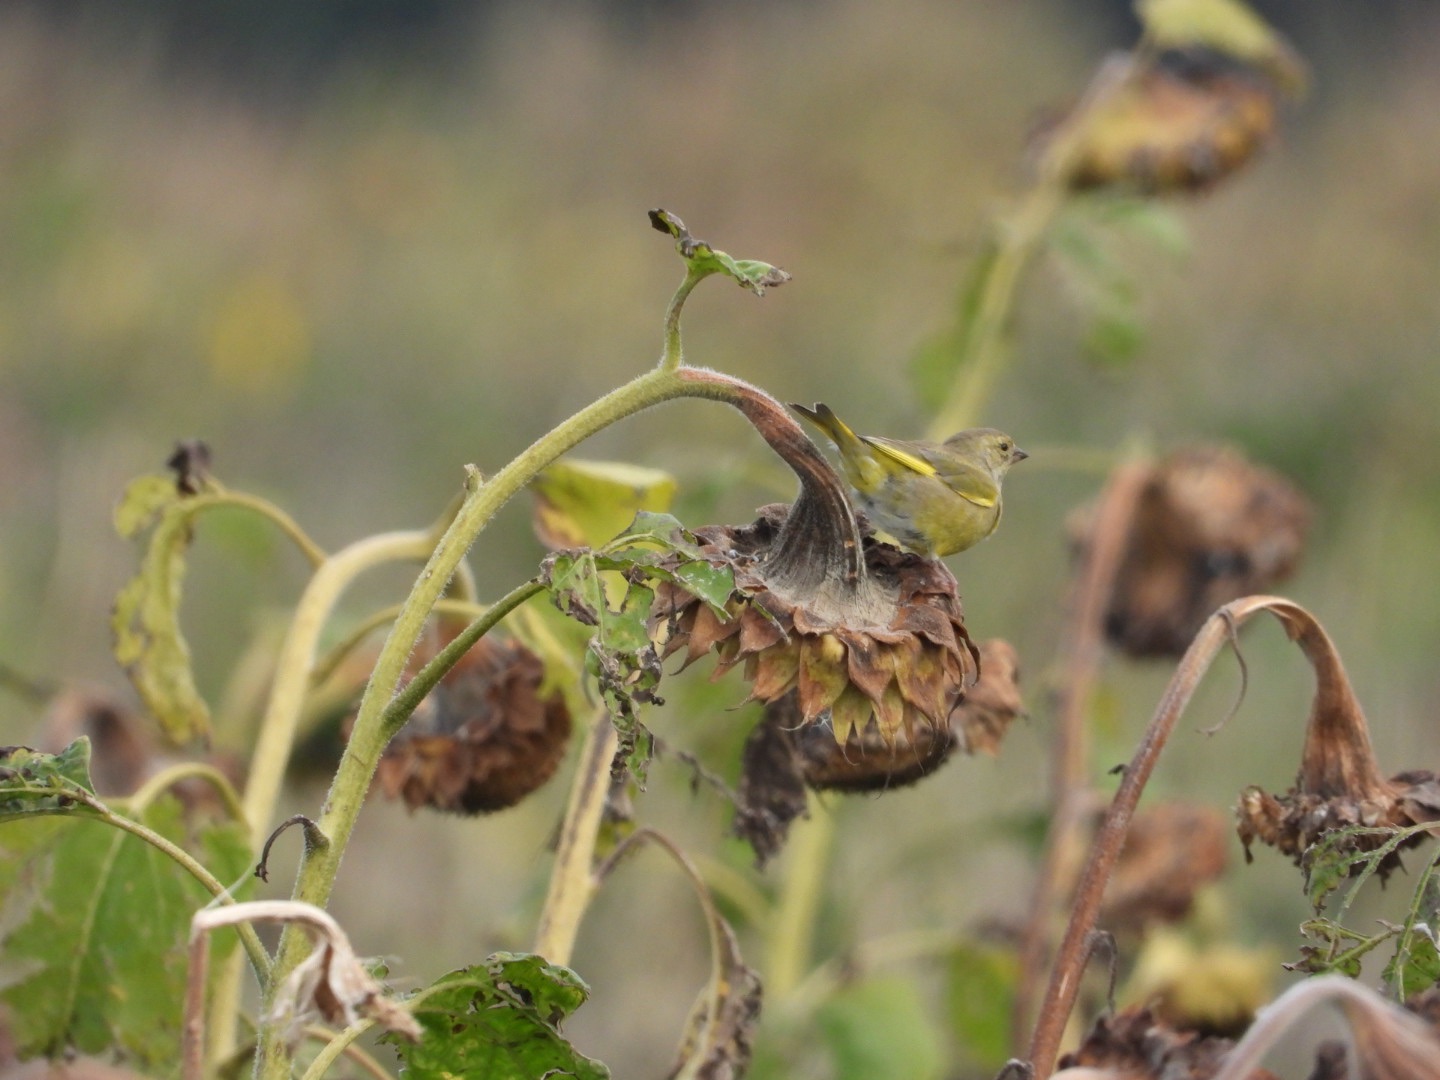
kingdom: Plantae
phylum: Tracheophyta
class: Liliopsida
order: Poales
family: Poaceae
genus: Chloris
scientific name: Chloris chloris
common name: Grønirisk
